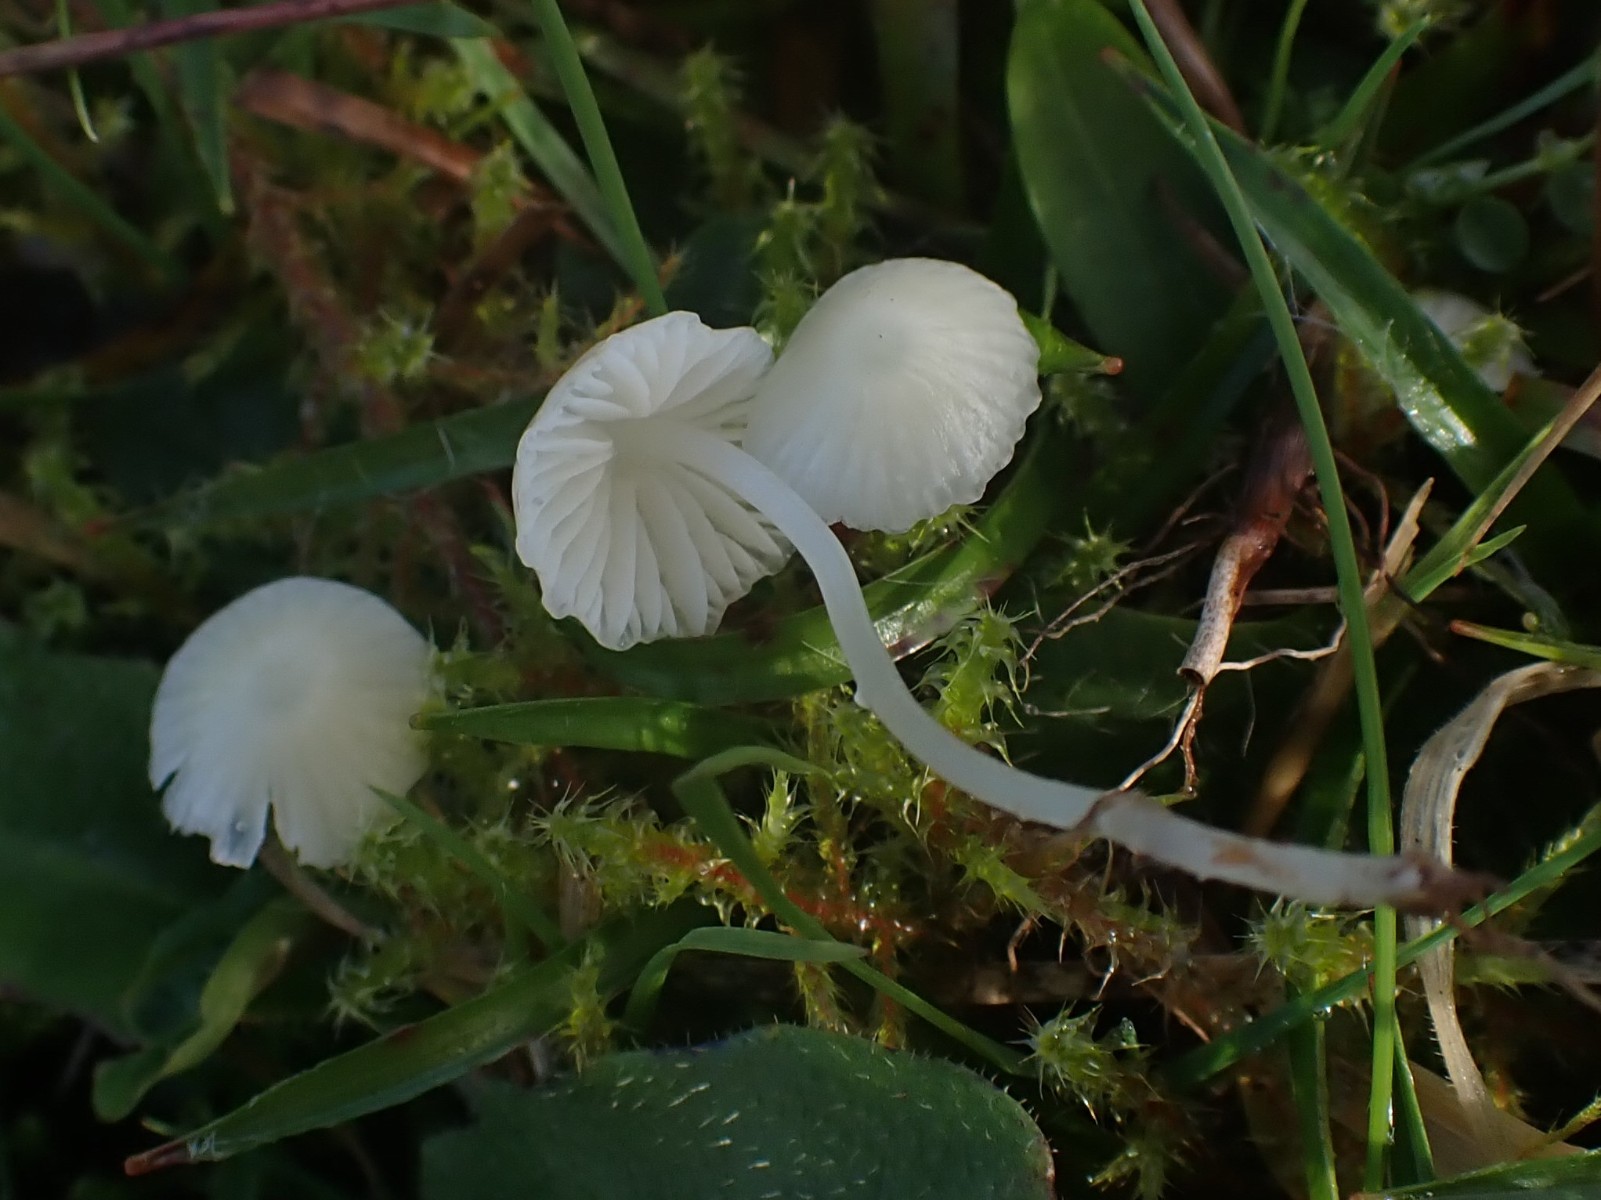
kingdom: Fungi
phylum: Basidiomycota
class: Agaricomycetes
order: Agaricales
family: Mycenaceae
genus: Atheniella
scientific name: Atheniella flavoalba
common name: gulhvid huesvamp
